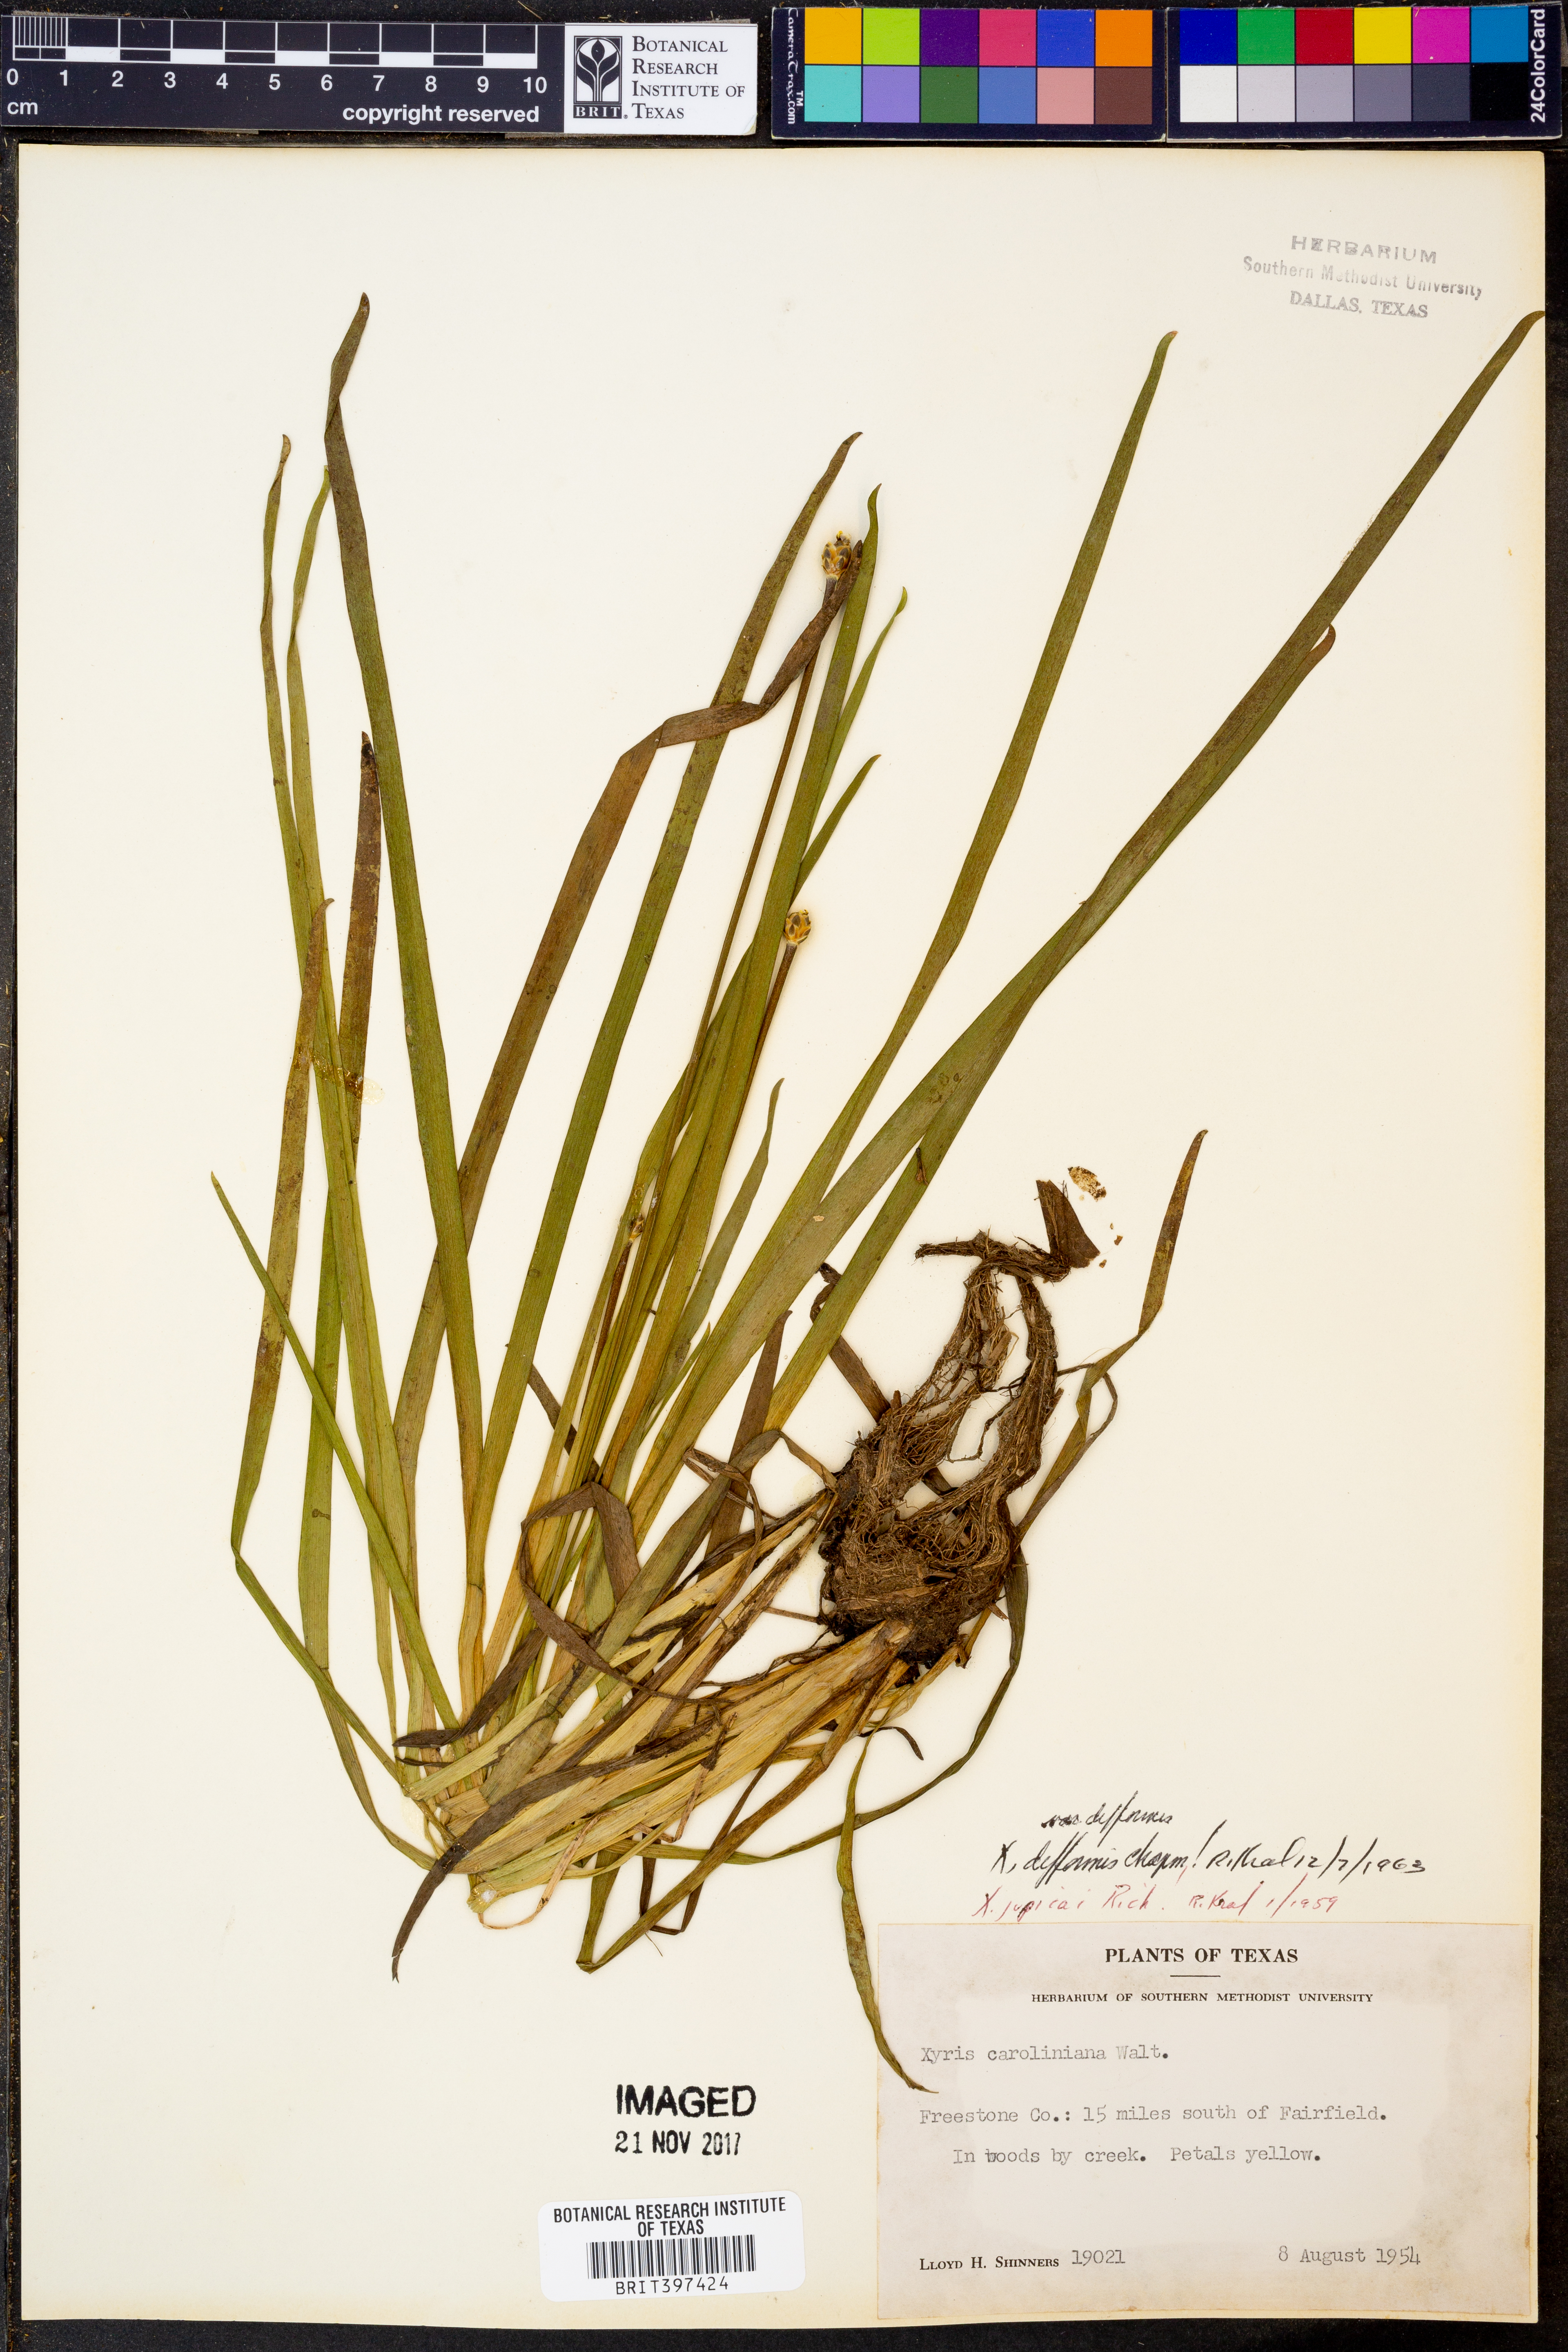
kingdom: Plantae
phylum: Tracheophyta
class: Liliopsida
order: Poales
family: Xyridaceae
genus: Xyris
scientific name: Xyris difformis
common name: Bog yellow-eyed-grass
